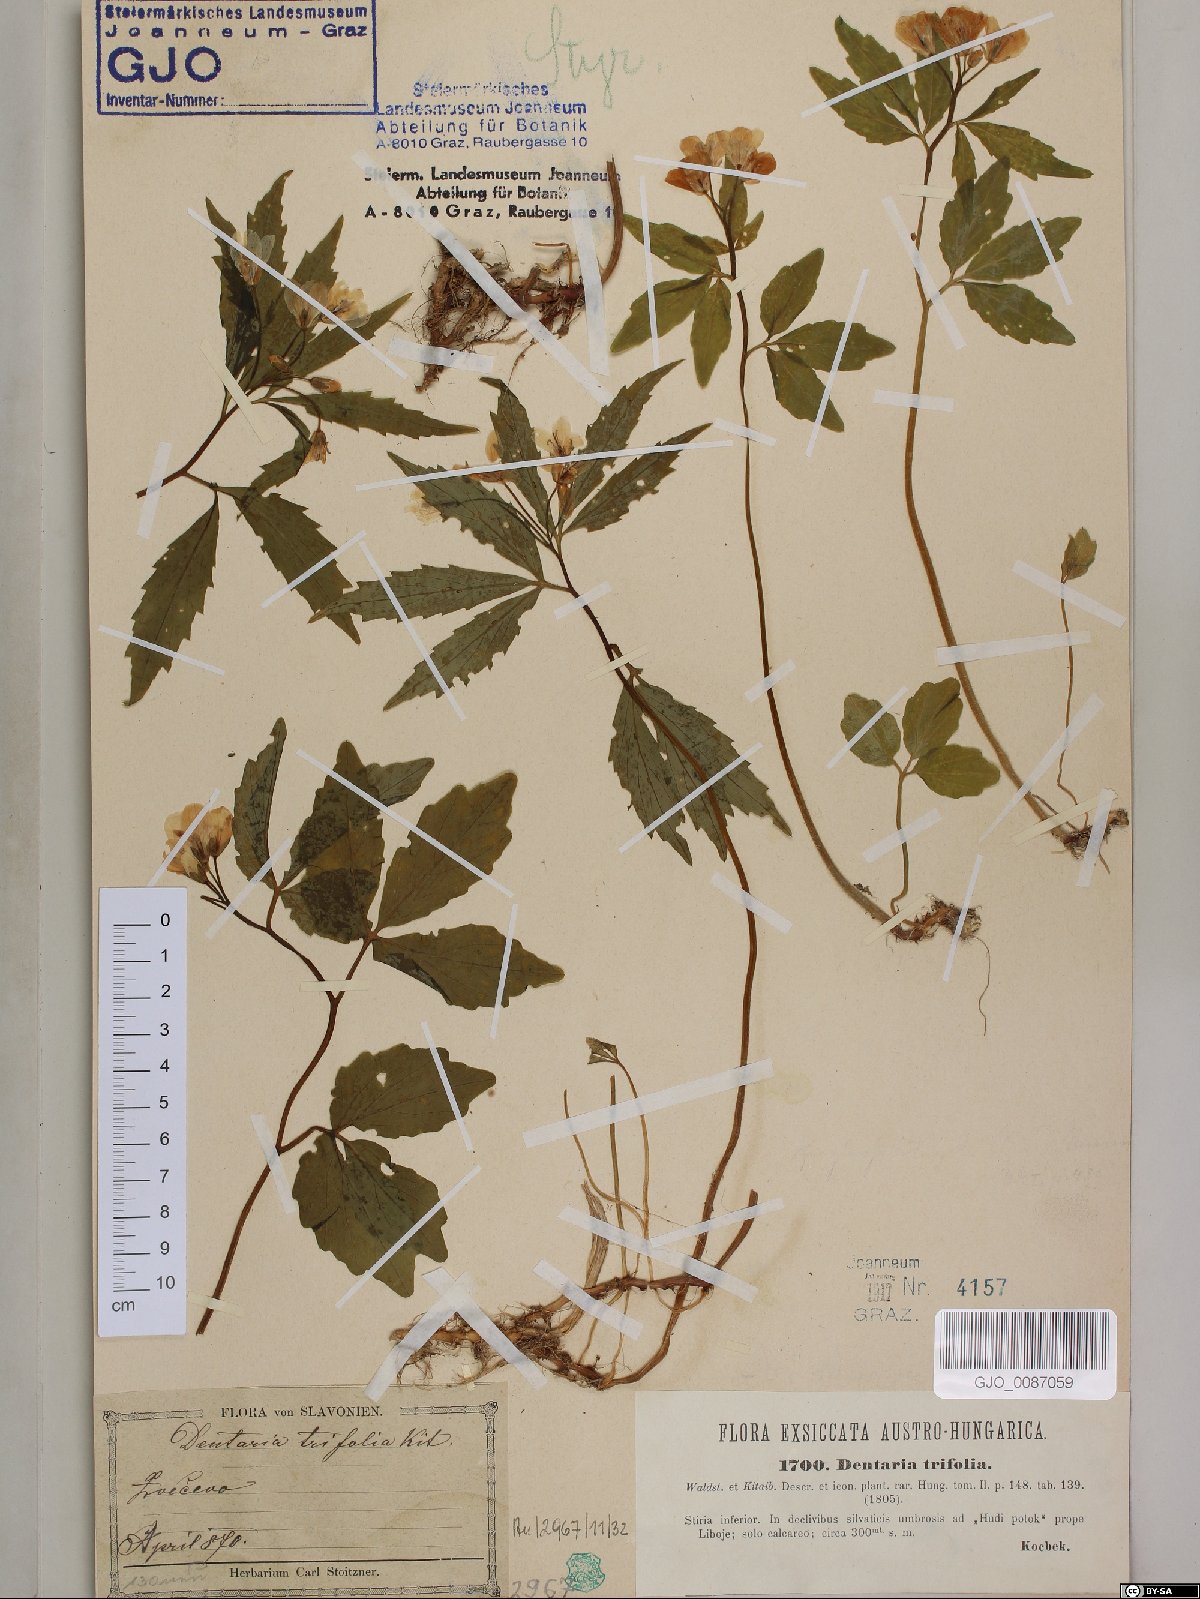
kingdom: Plantae
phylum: Tracheophyta
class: Magnoliopsida
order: Brassicales
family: Brassicaceae
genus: Cardamine
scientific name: Cardamine waldsteinii
